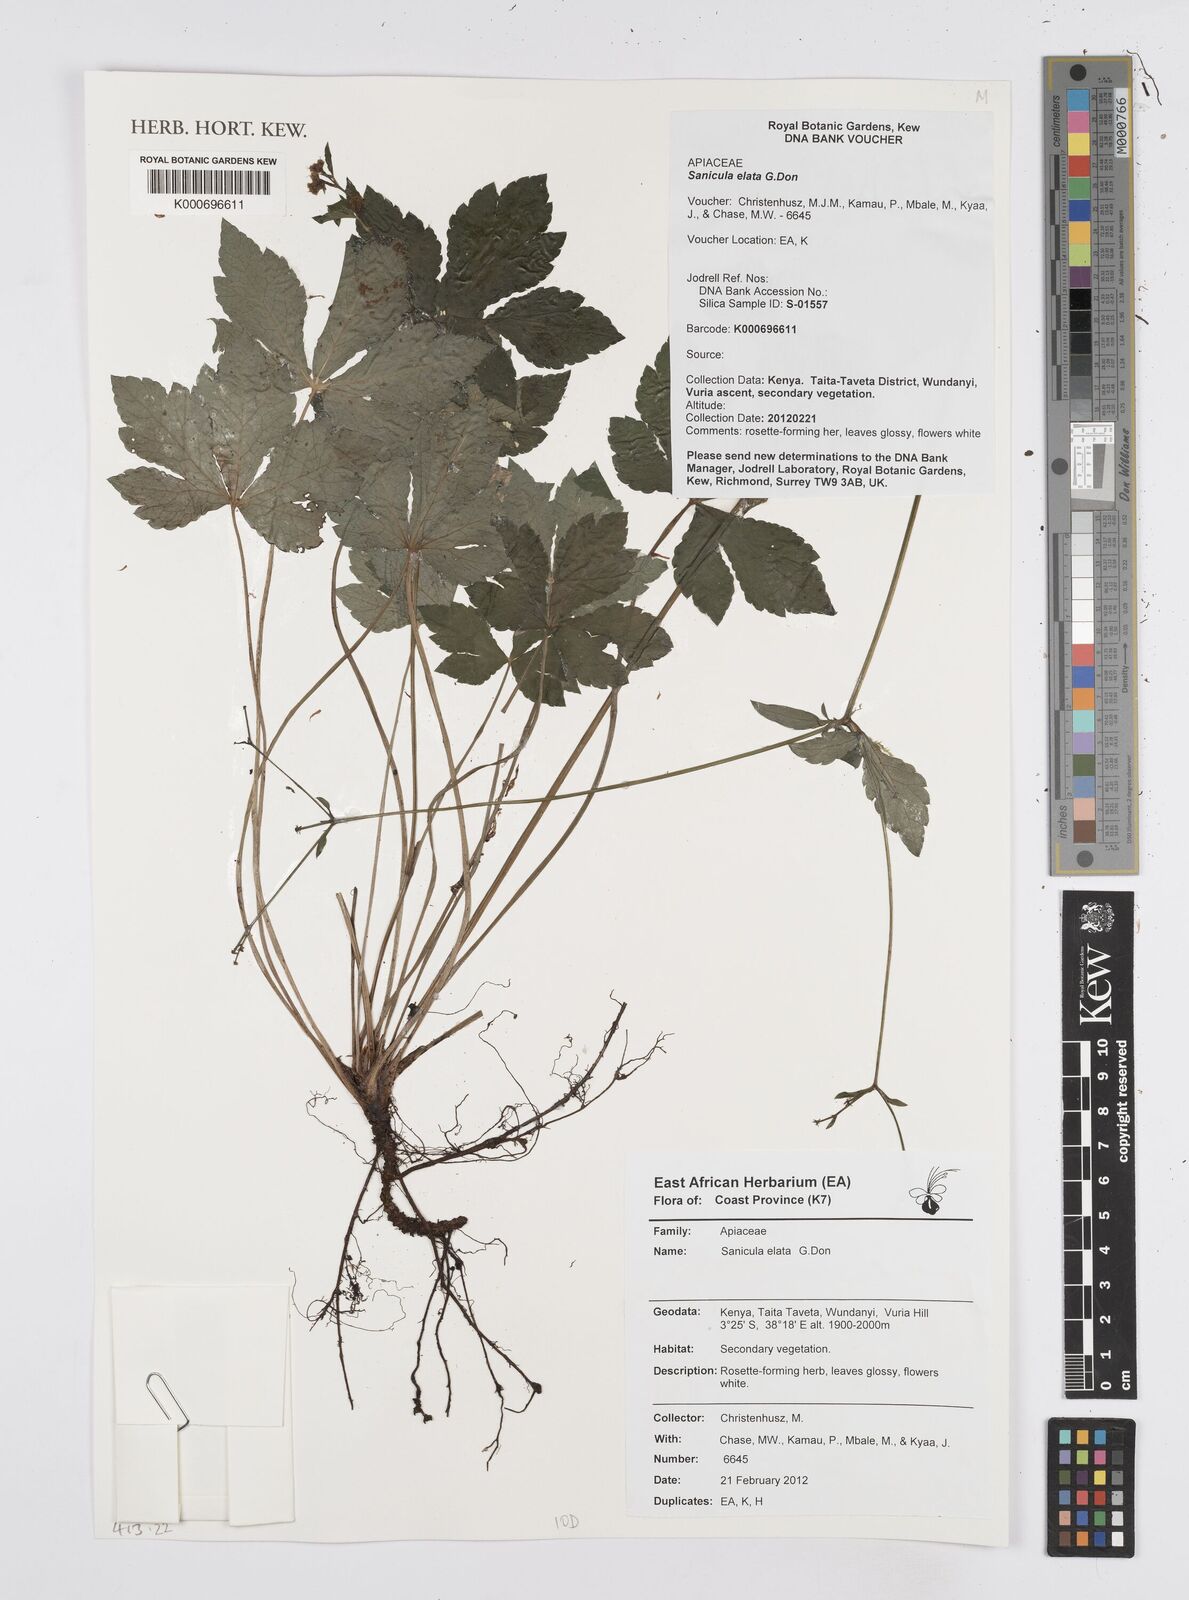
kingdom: Plantae
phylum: Tracheophyta
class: Magnoliopsida
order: Apiales
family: Apiaceae
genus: Sanicula
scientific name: Sanicula elata
